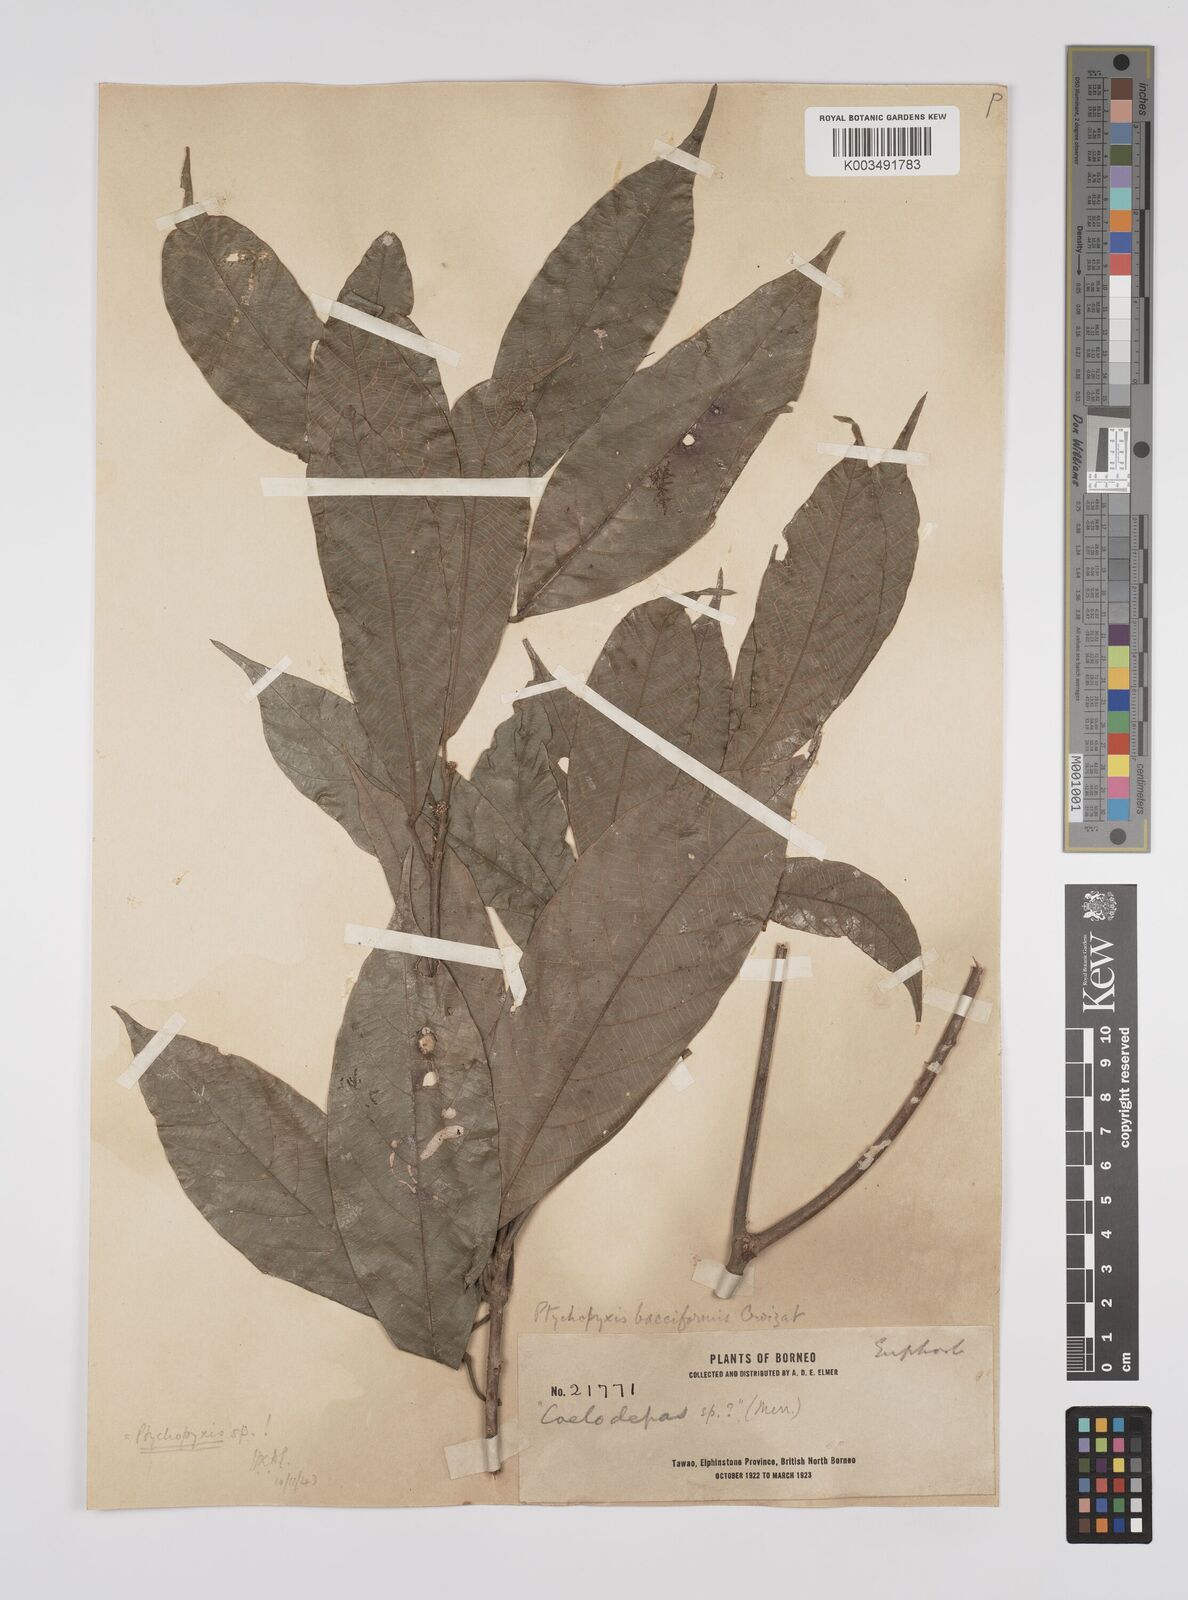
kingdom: Plantae
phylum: Tracheophyta
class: Magnoliopsida
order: Malpighiales
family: Euphorbiaceae
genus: Ptychopyxis
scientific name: Ptychopyxis bacciformis
